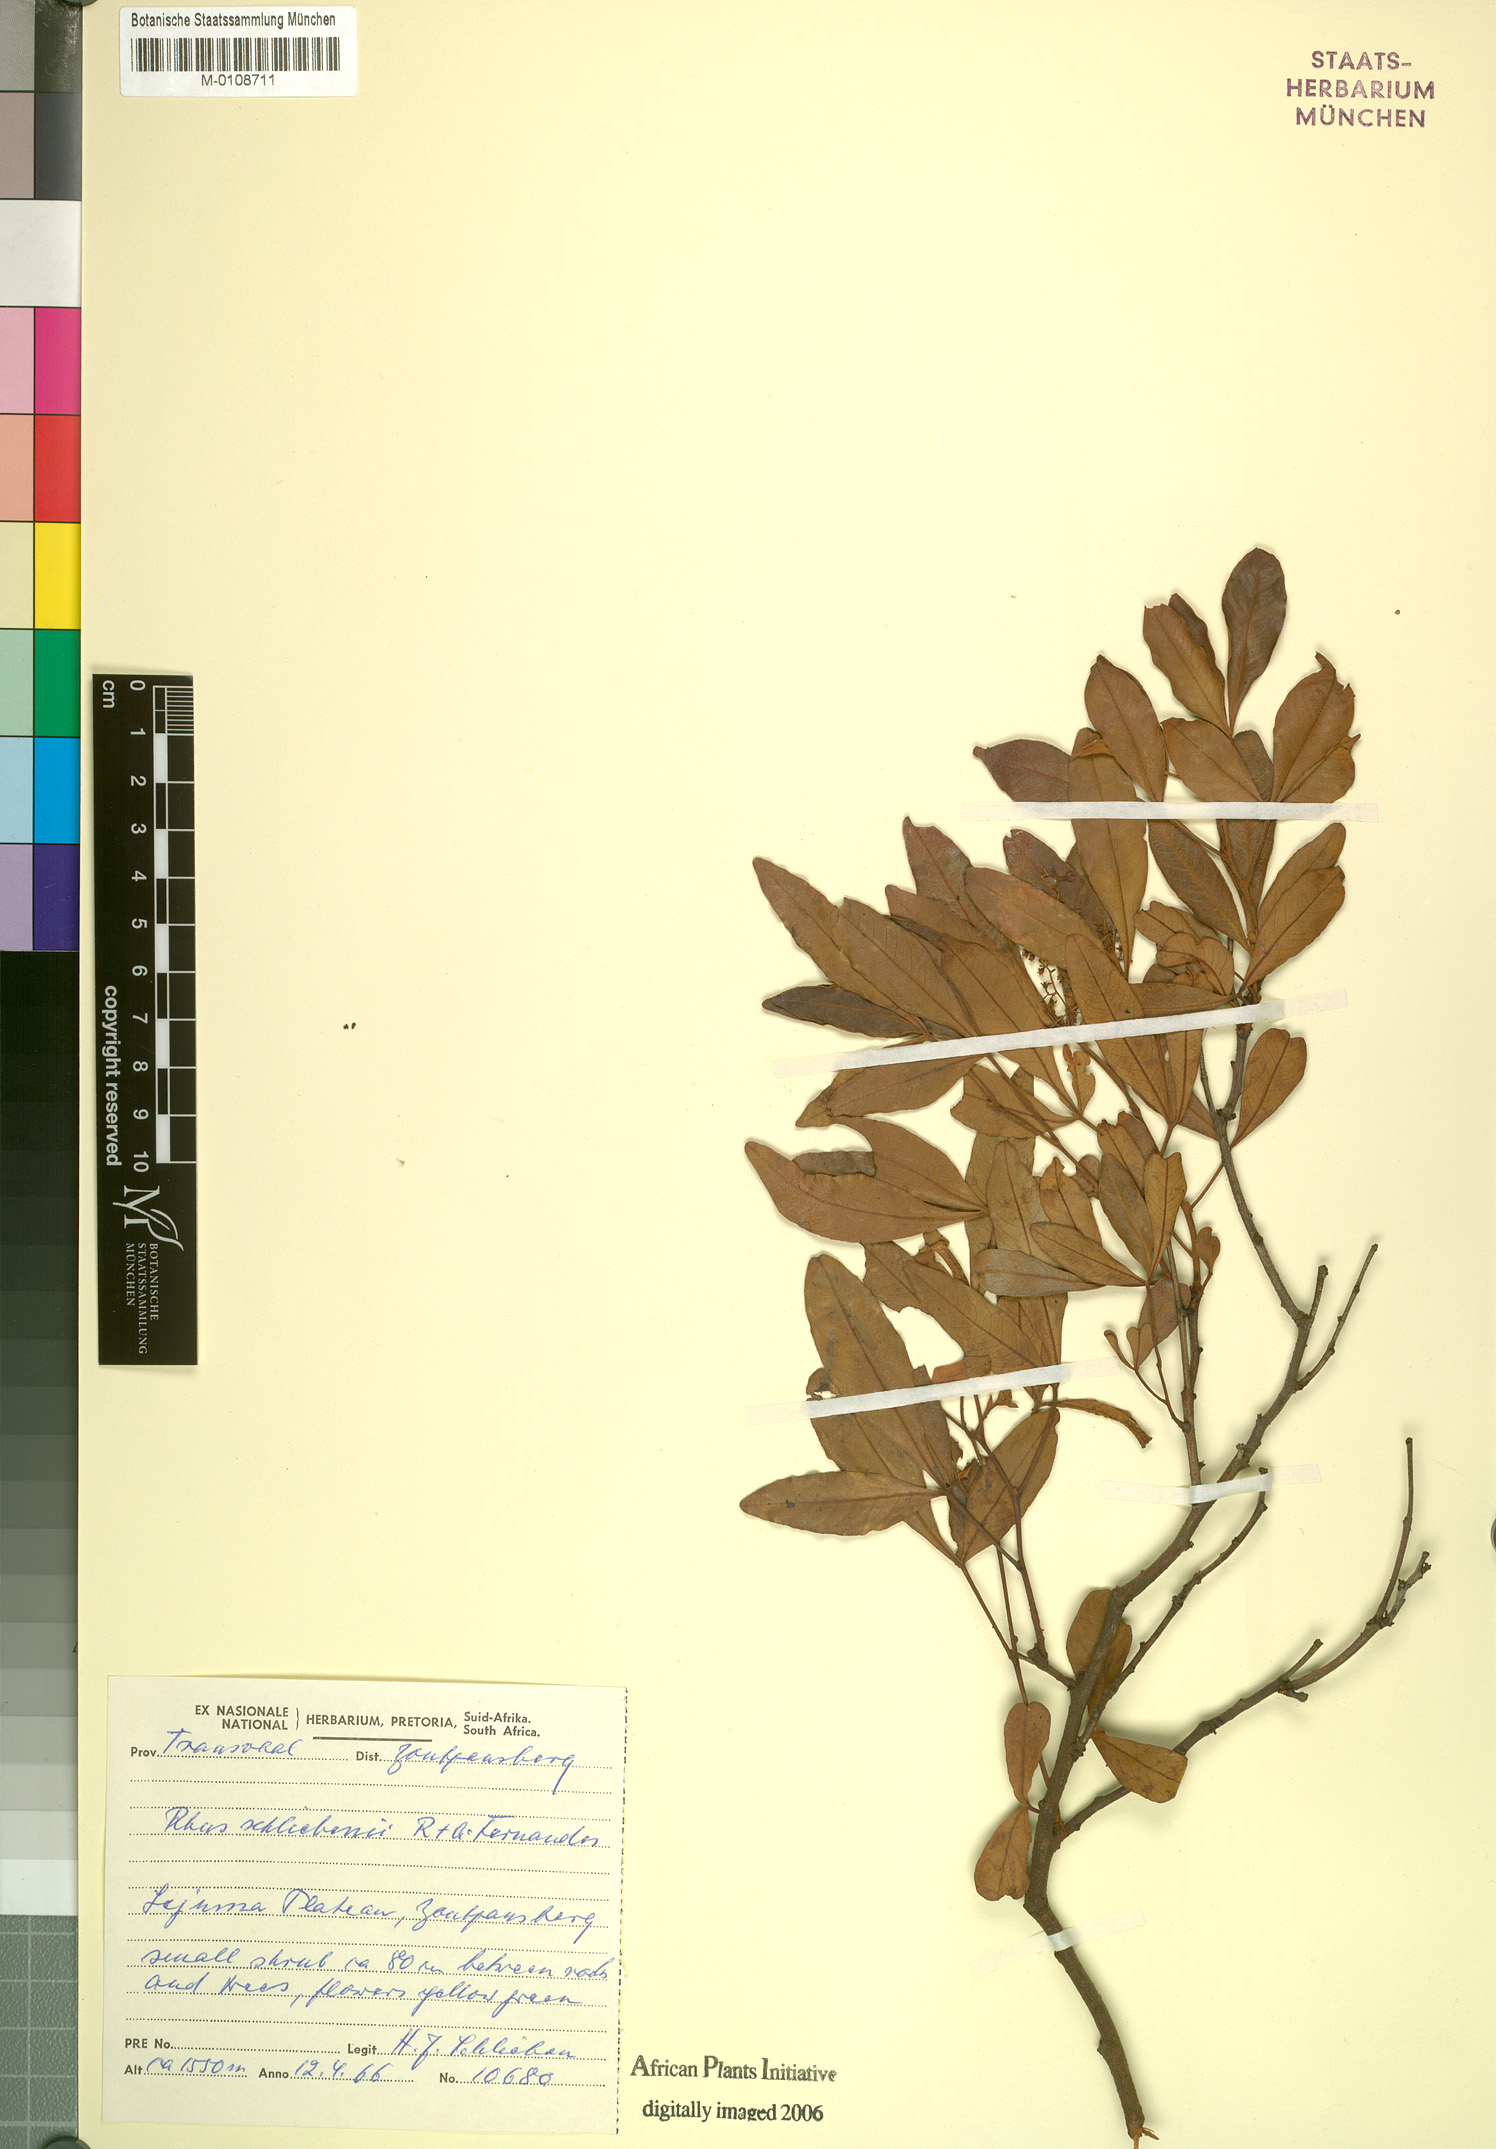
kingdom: Plantae
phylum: Tracheophyta
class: Magnoliopsida
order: Sapindales
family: Anacardiaceae
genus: Searsia
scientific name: Searsia magalismontana
